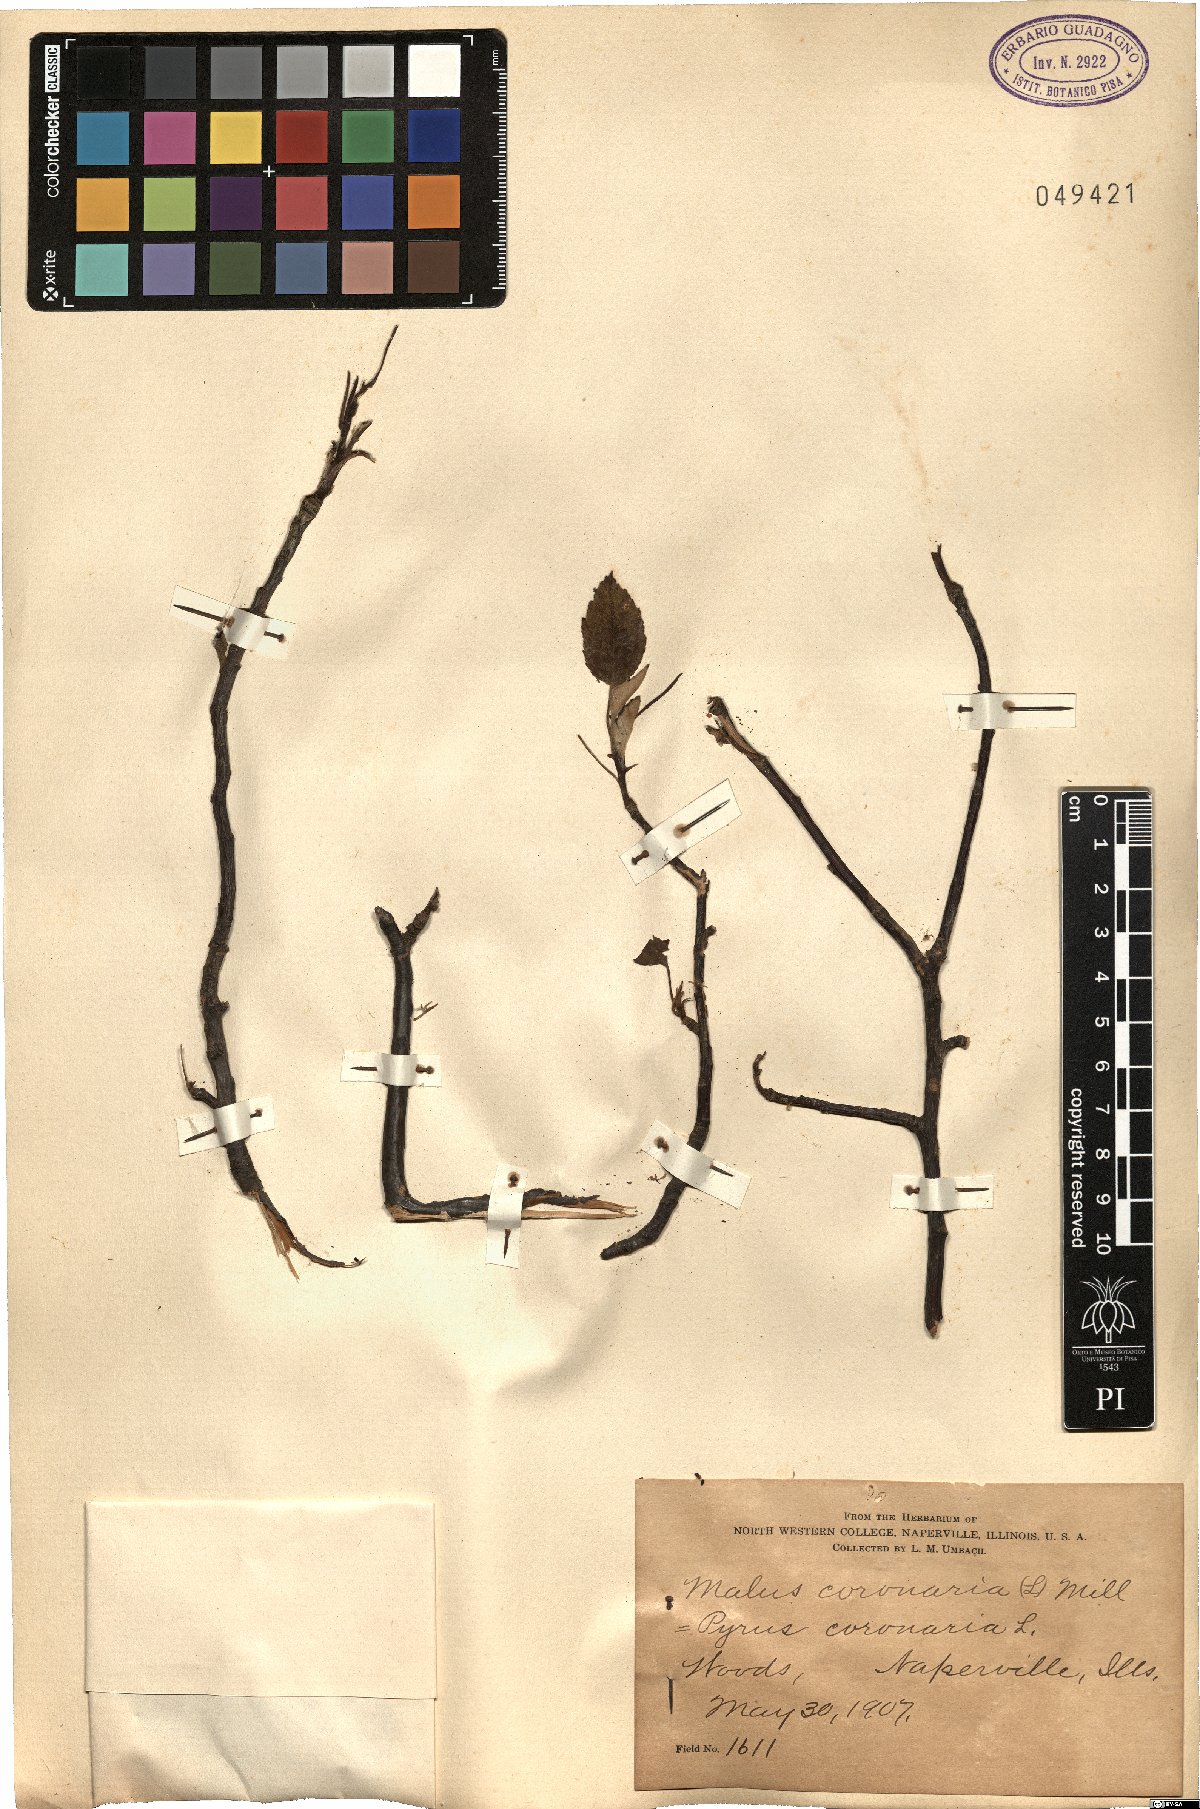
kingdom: Plantae
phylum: Tracheophyta
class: Magnoliopsida
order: Rosales
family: Rosaceae
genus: Malus
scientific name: Malus coronaria
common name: Sweet crab apple
